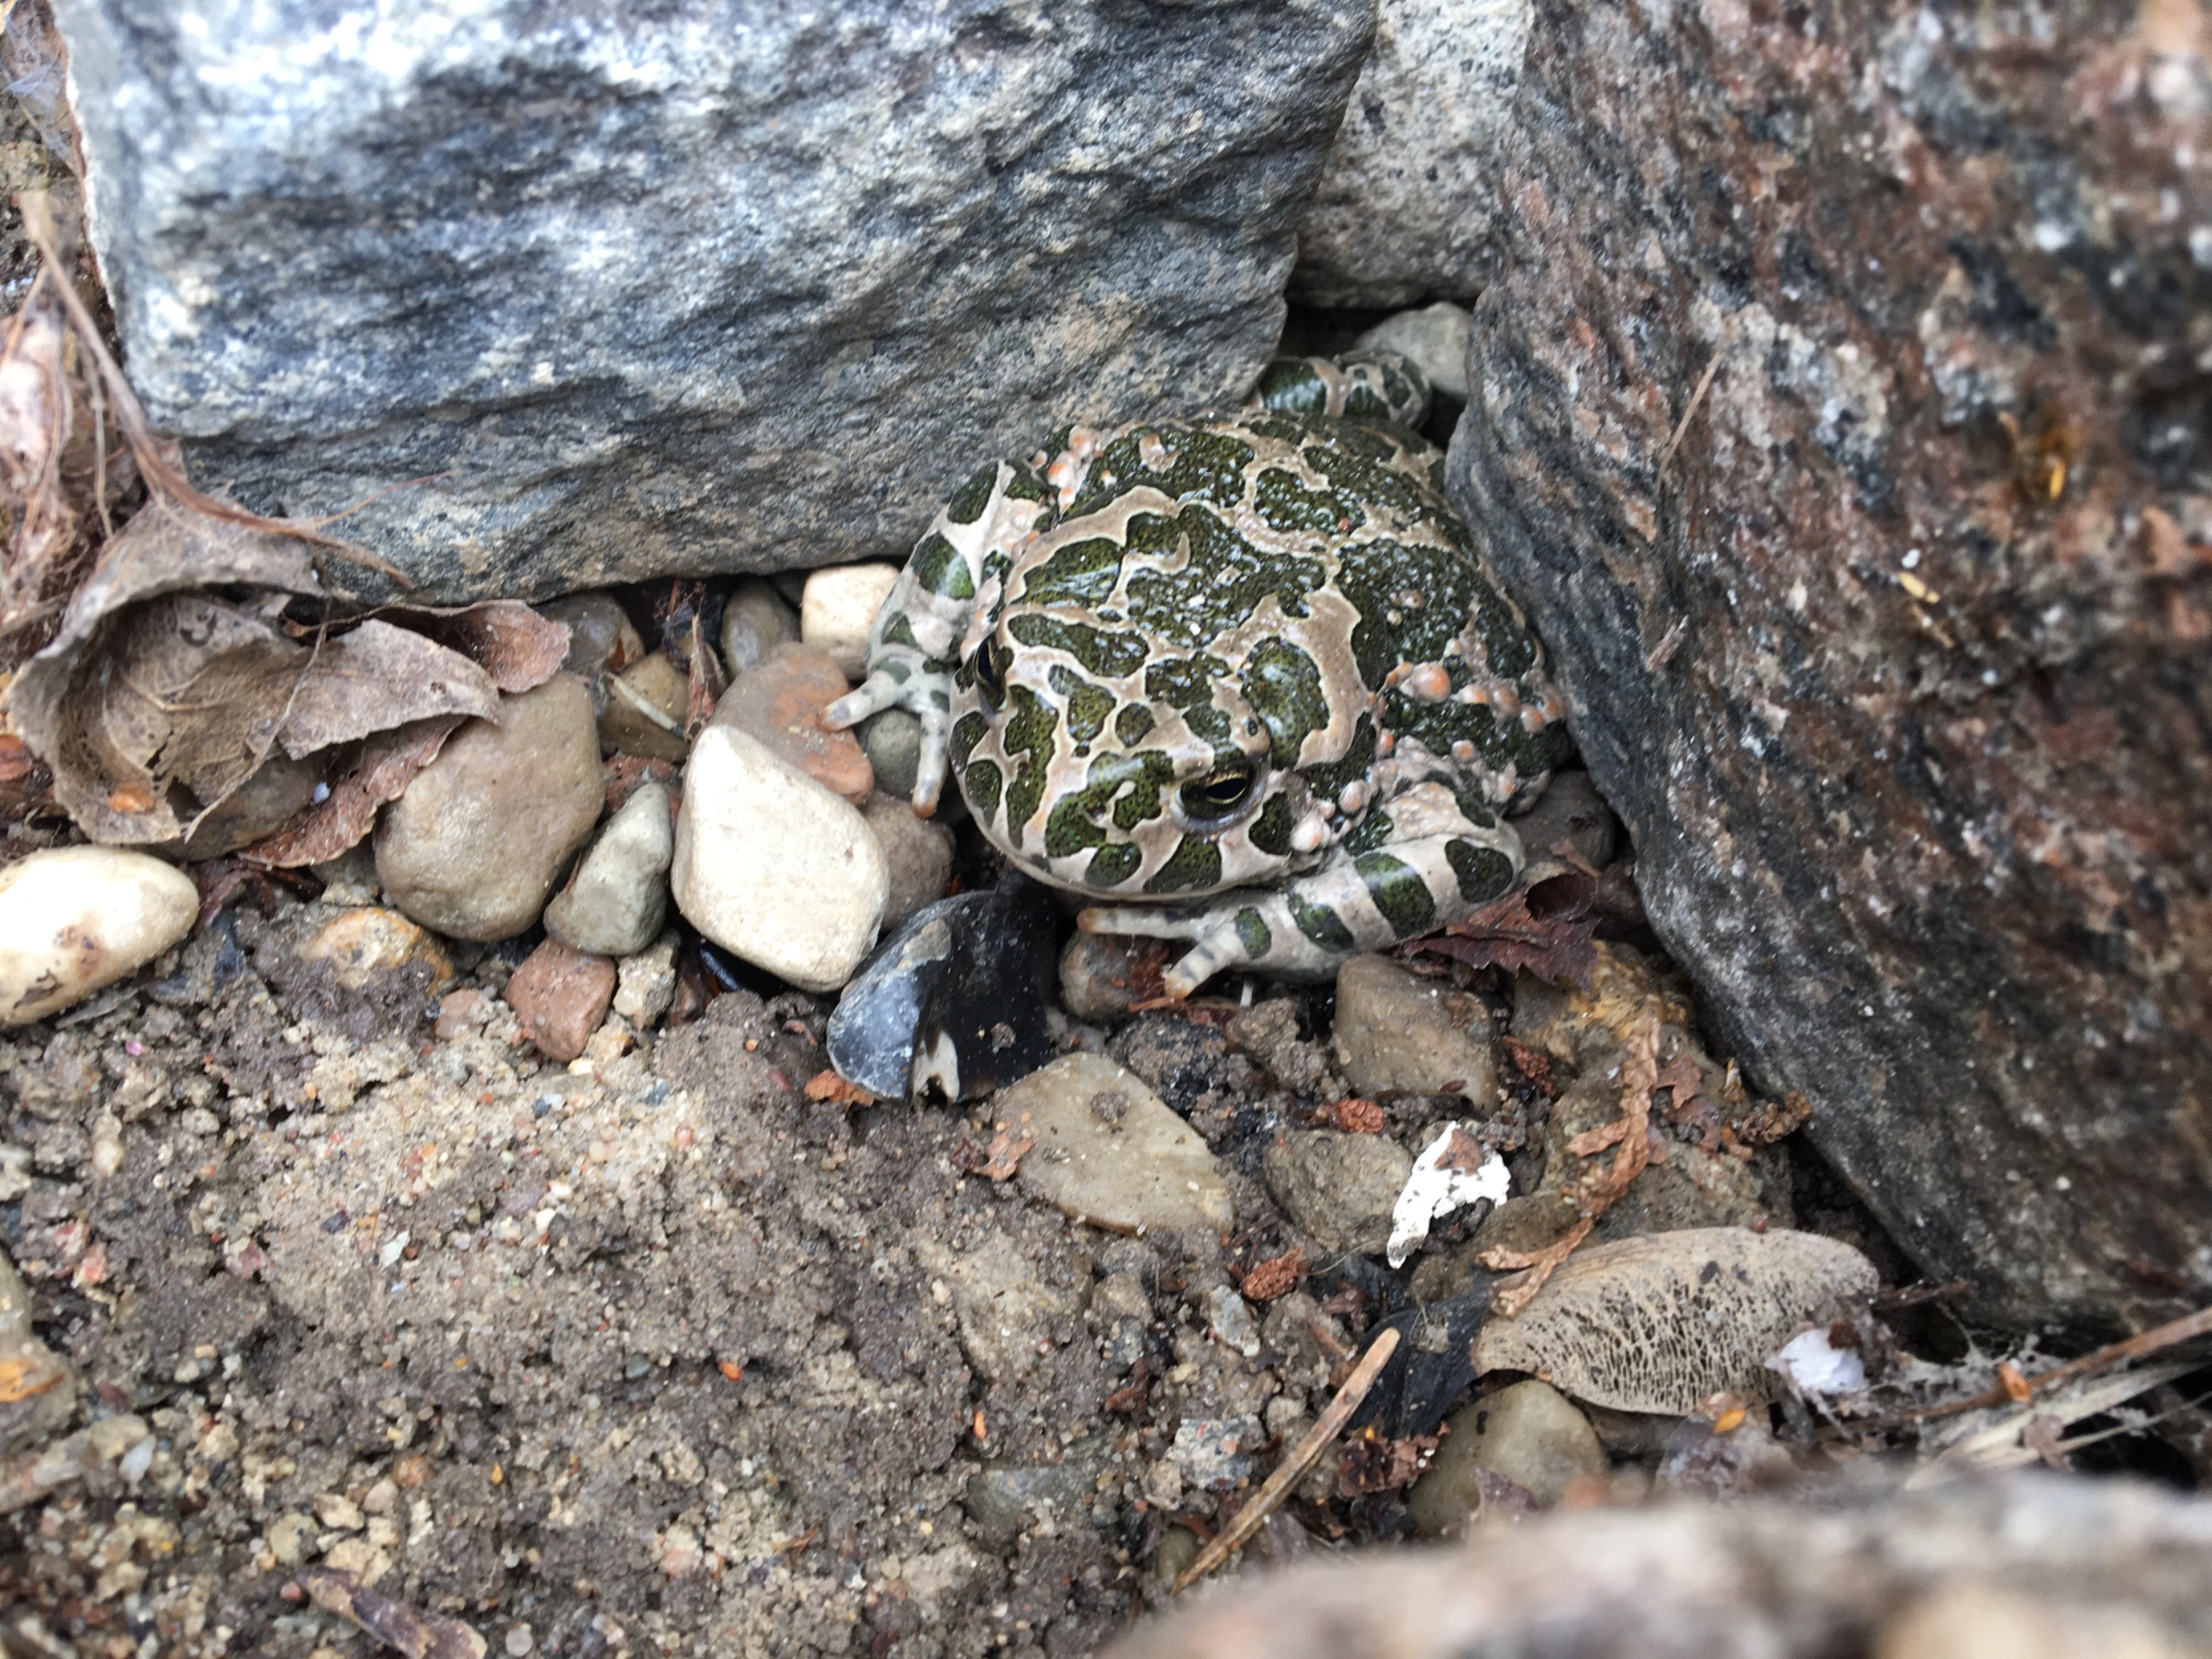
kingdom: Animalia
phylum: Chordata
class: Amphibia
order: Anura
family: Bufonidae
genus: Bufotes
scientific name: Bufotes viridis
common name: Grønbroget tudse
